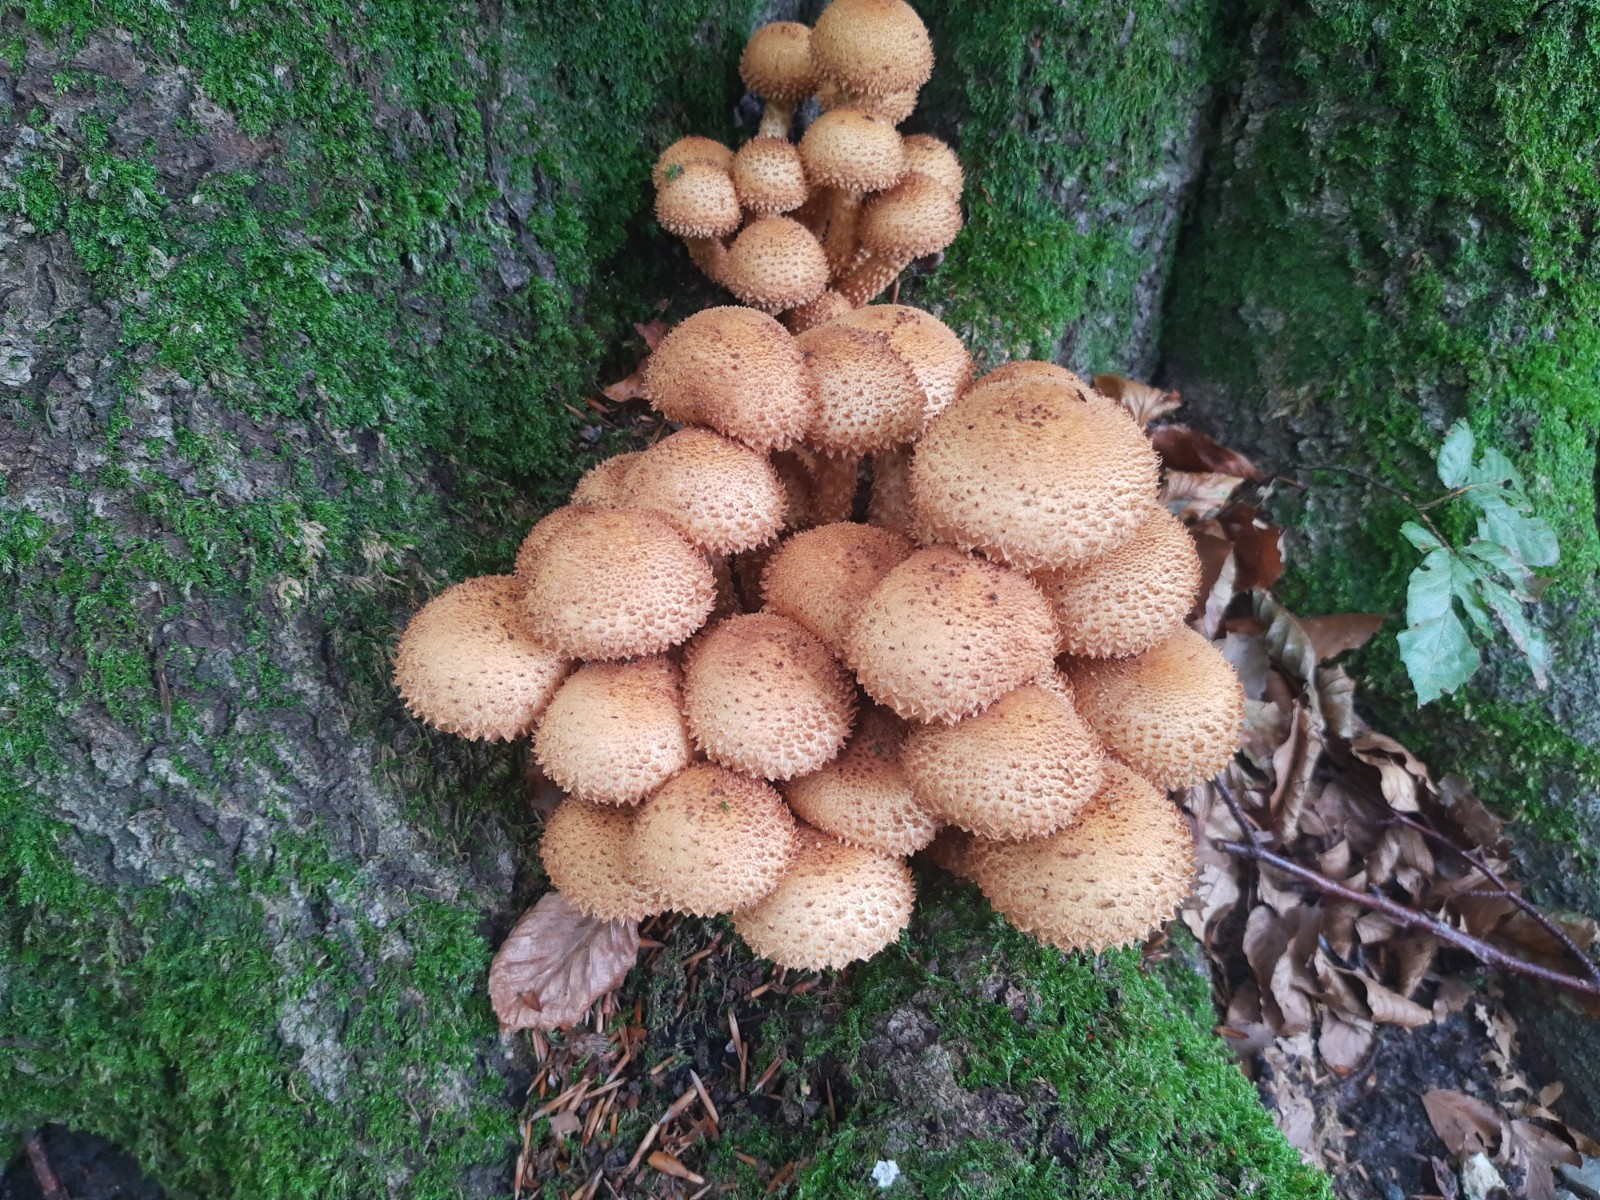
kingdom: Fungi
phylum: Basidiomycota
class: Agaricomycetes
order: Agaricales
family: Strophariaceae
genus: Pholiota
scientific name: Pholiota squarrosa
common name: krumskællet skælhat
